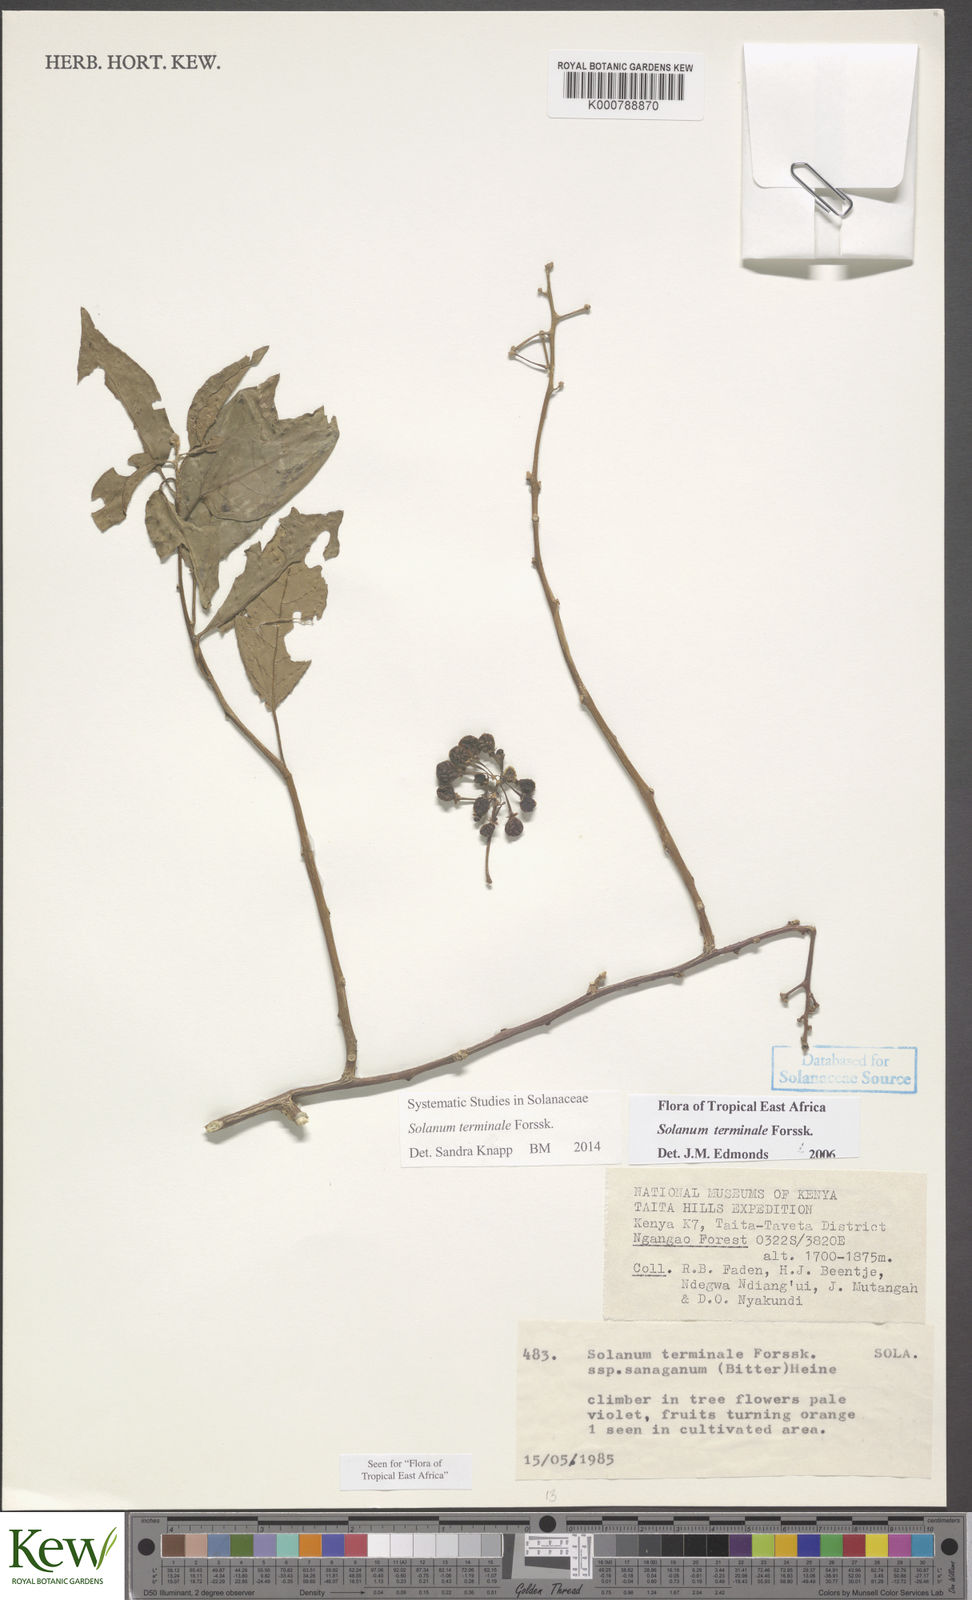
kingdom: Plantae
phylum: Tracheophyta
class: Magnoliopsida
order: Solanales
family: Solanaceae
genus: Solanum
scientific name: Solanum terminale
